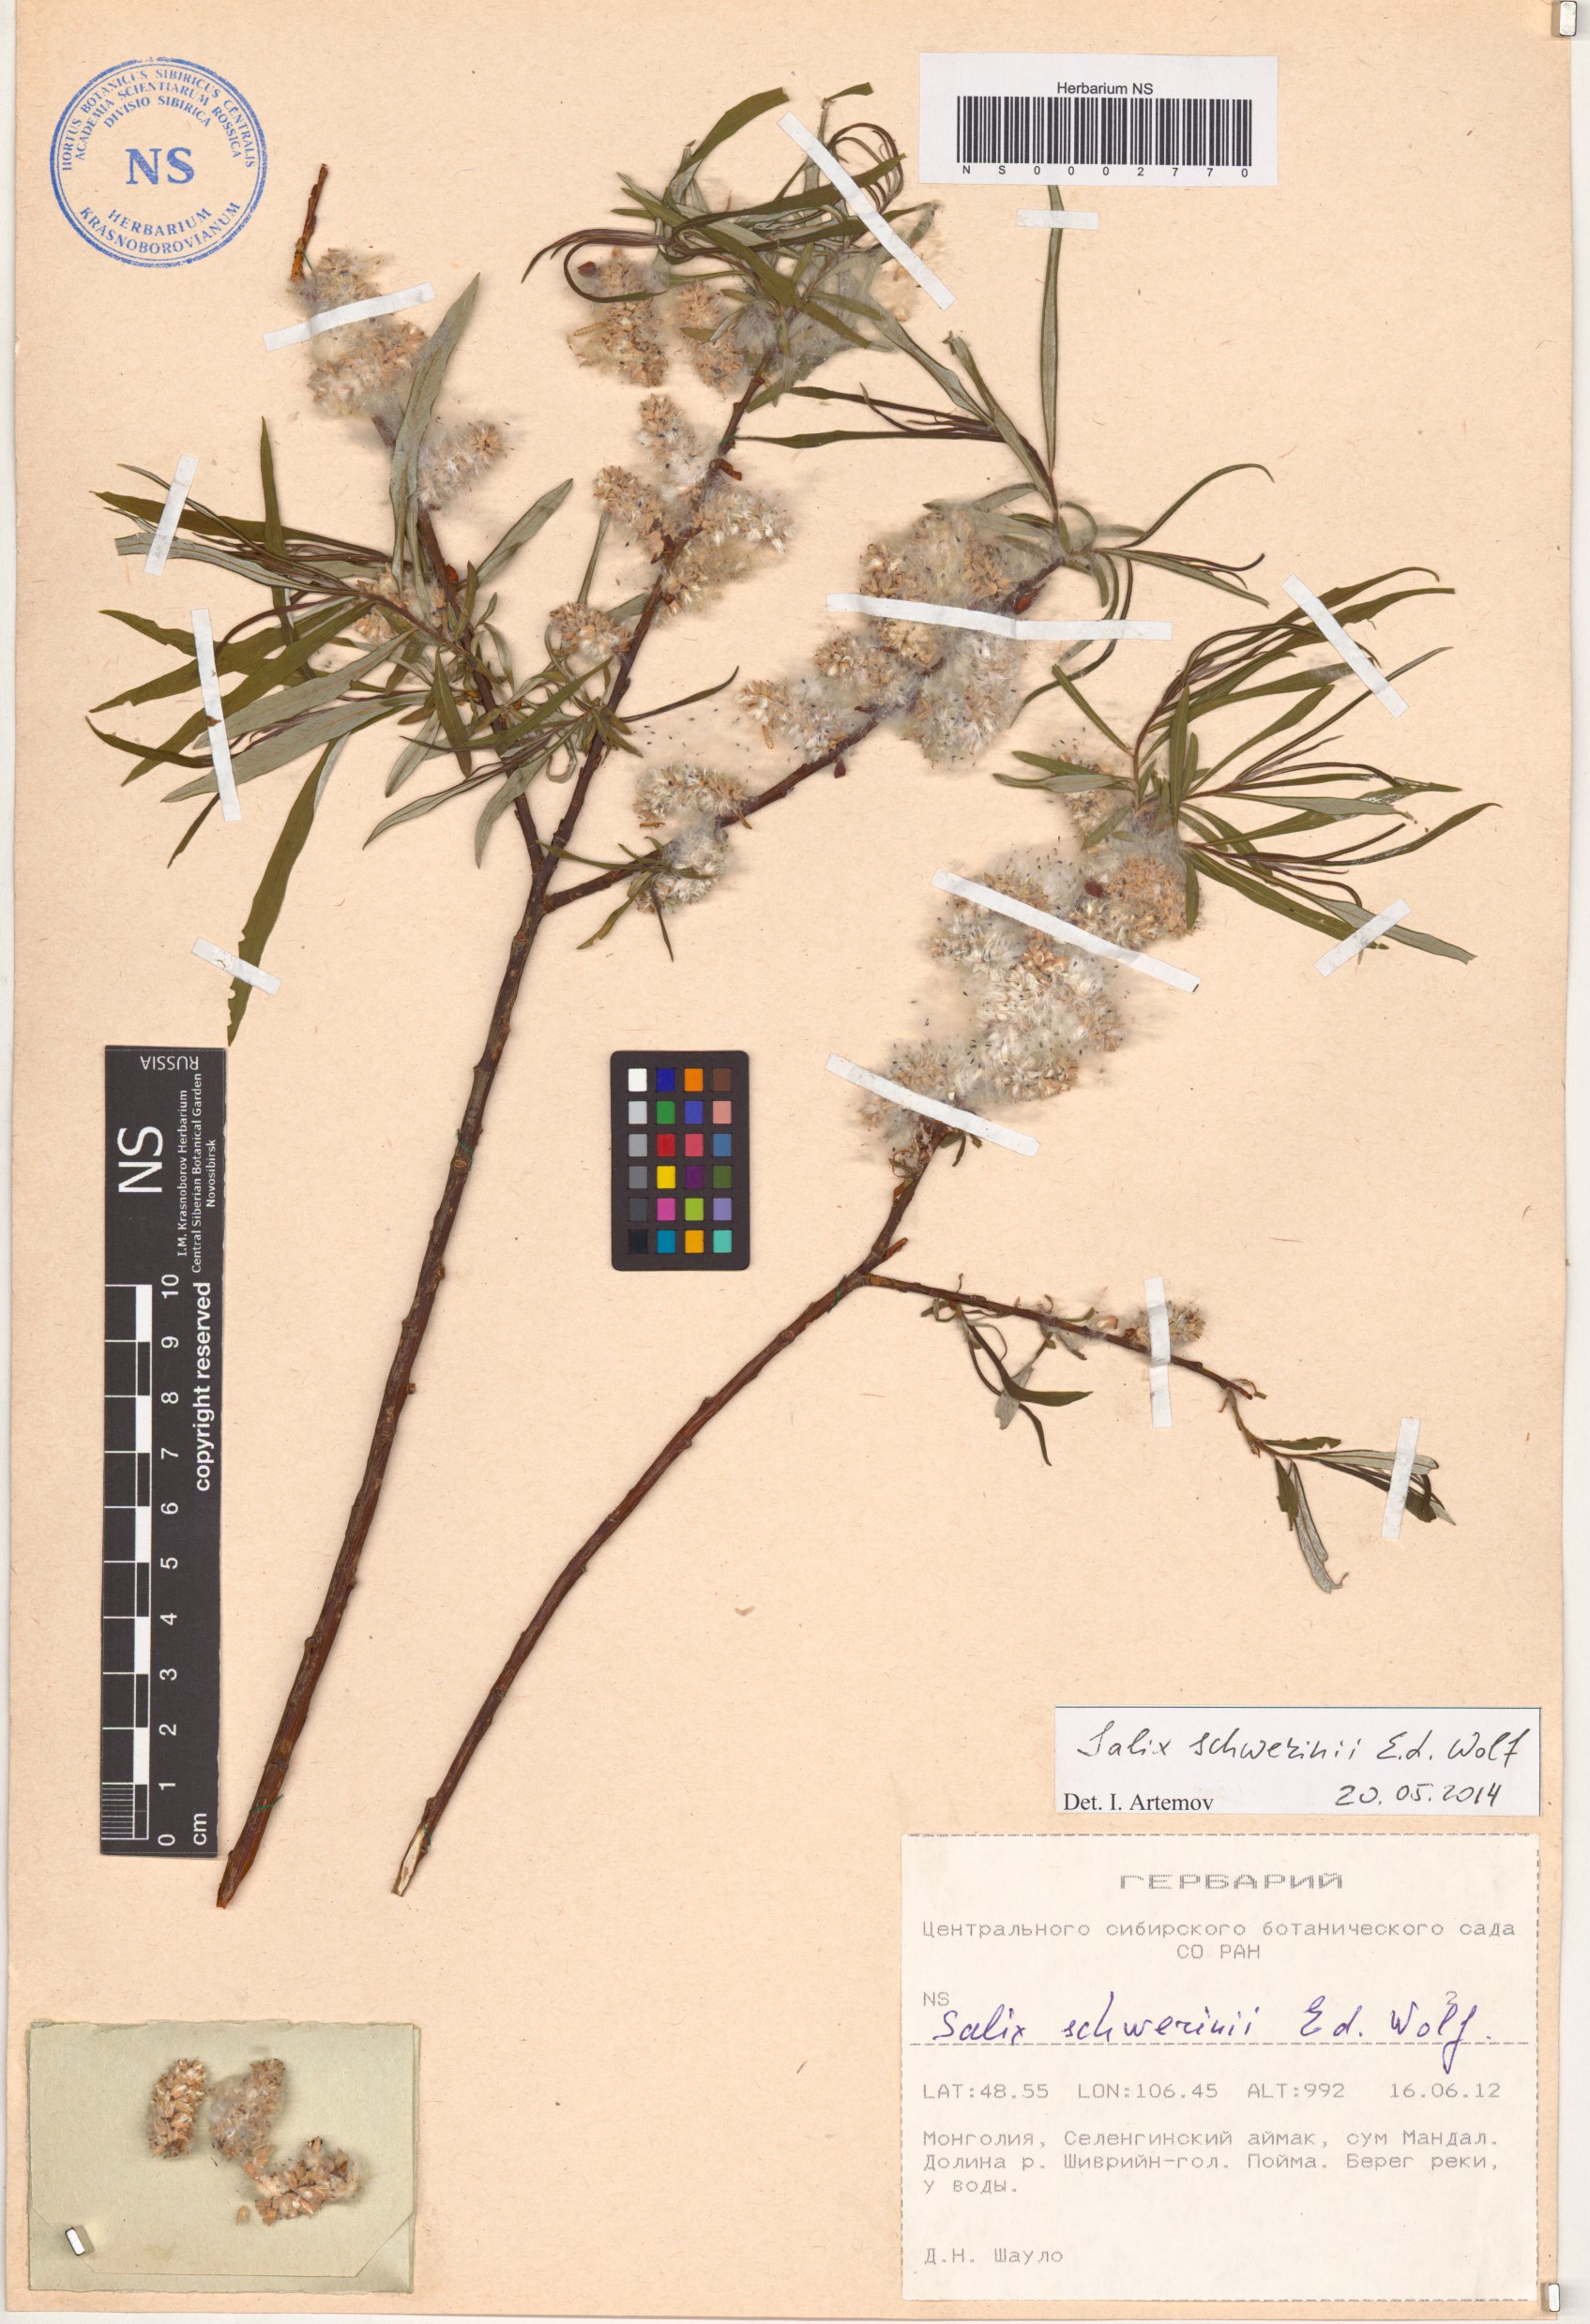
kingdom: Plantae
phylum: Tracheophyta
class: Magnoliopsida
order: Malpighiales
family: Salicaceae
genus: Salix
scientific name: Salix schwerinii
